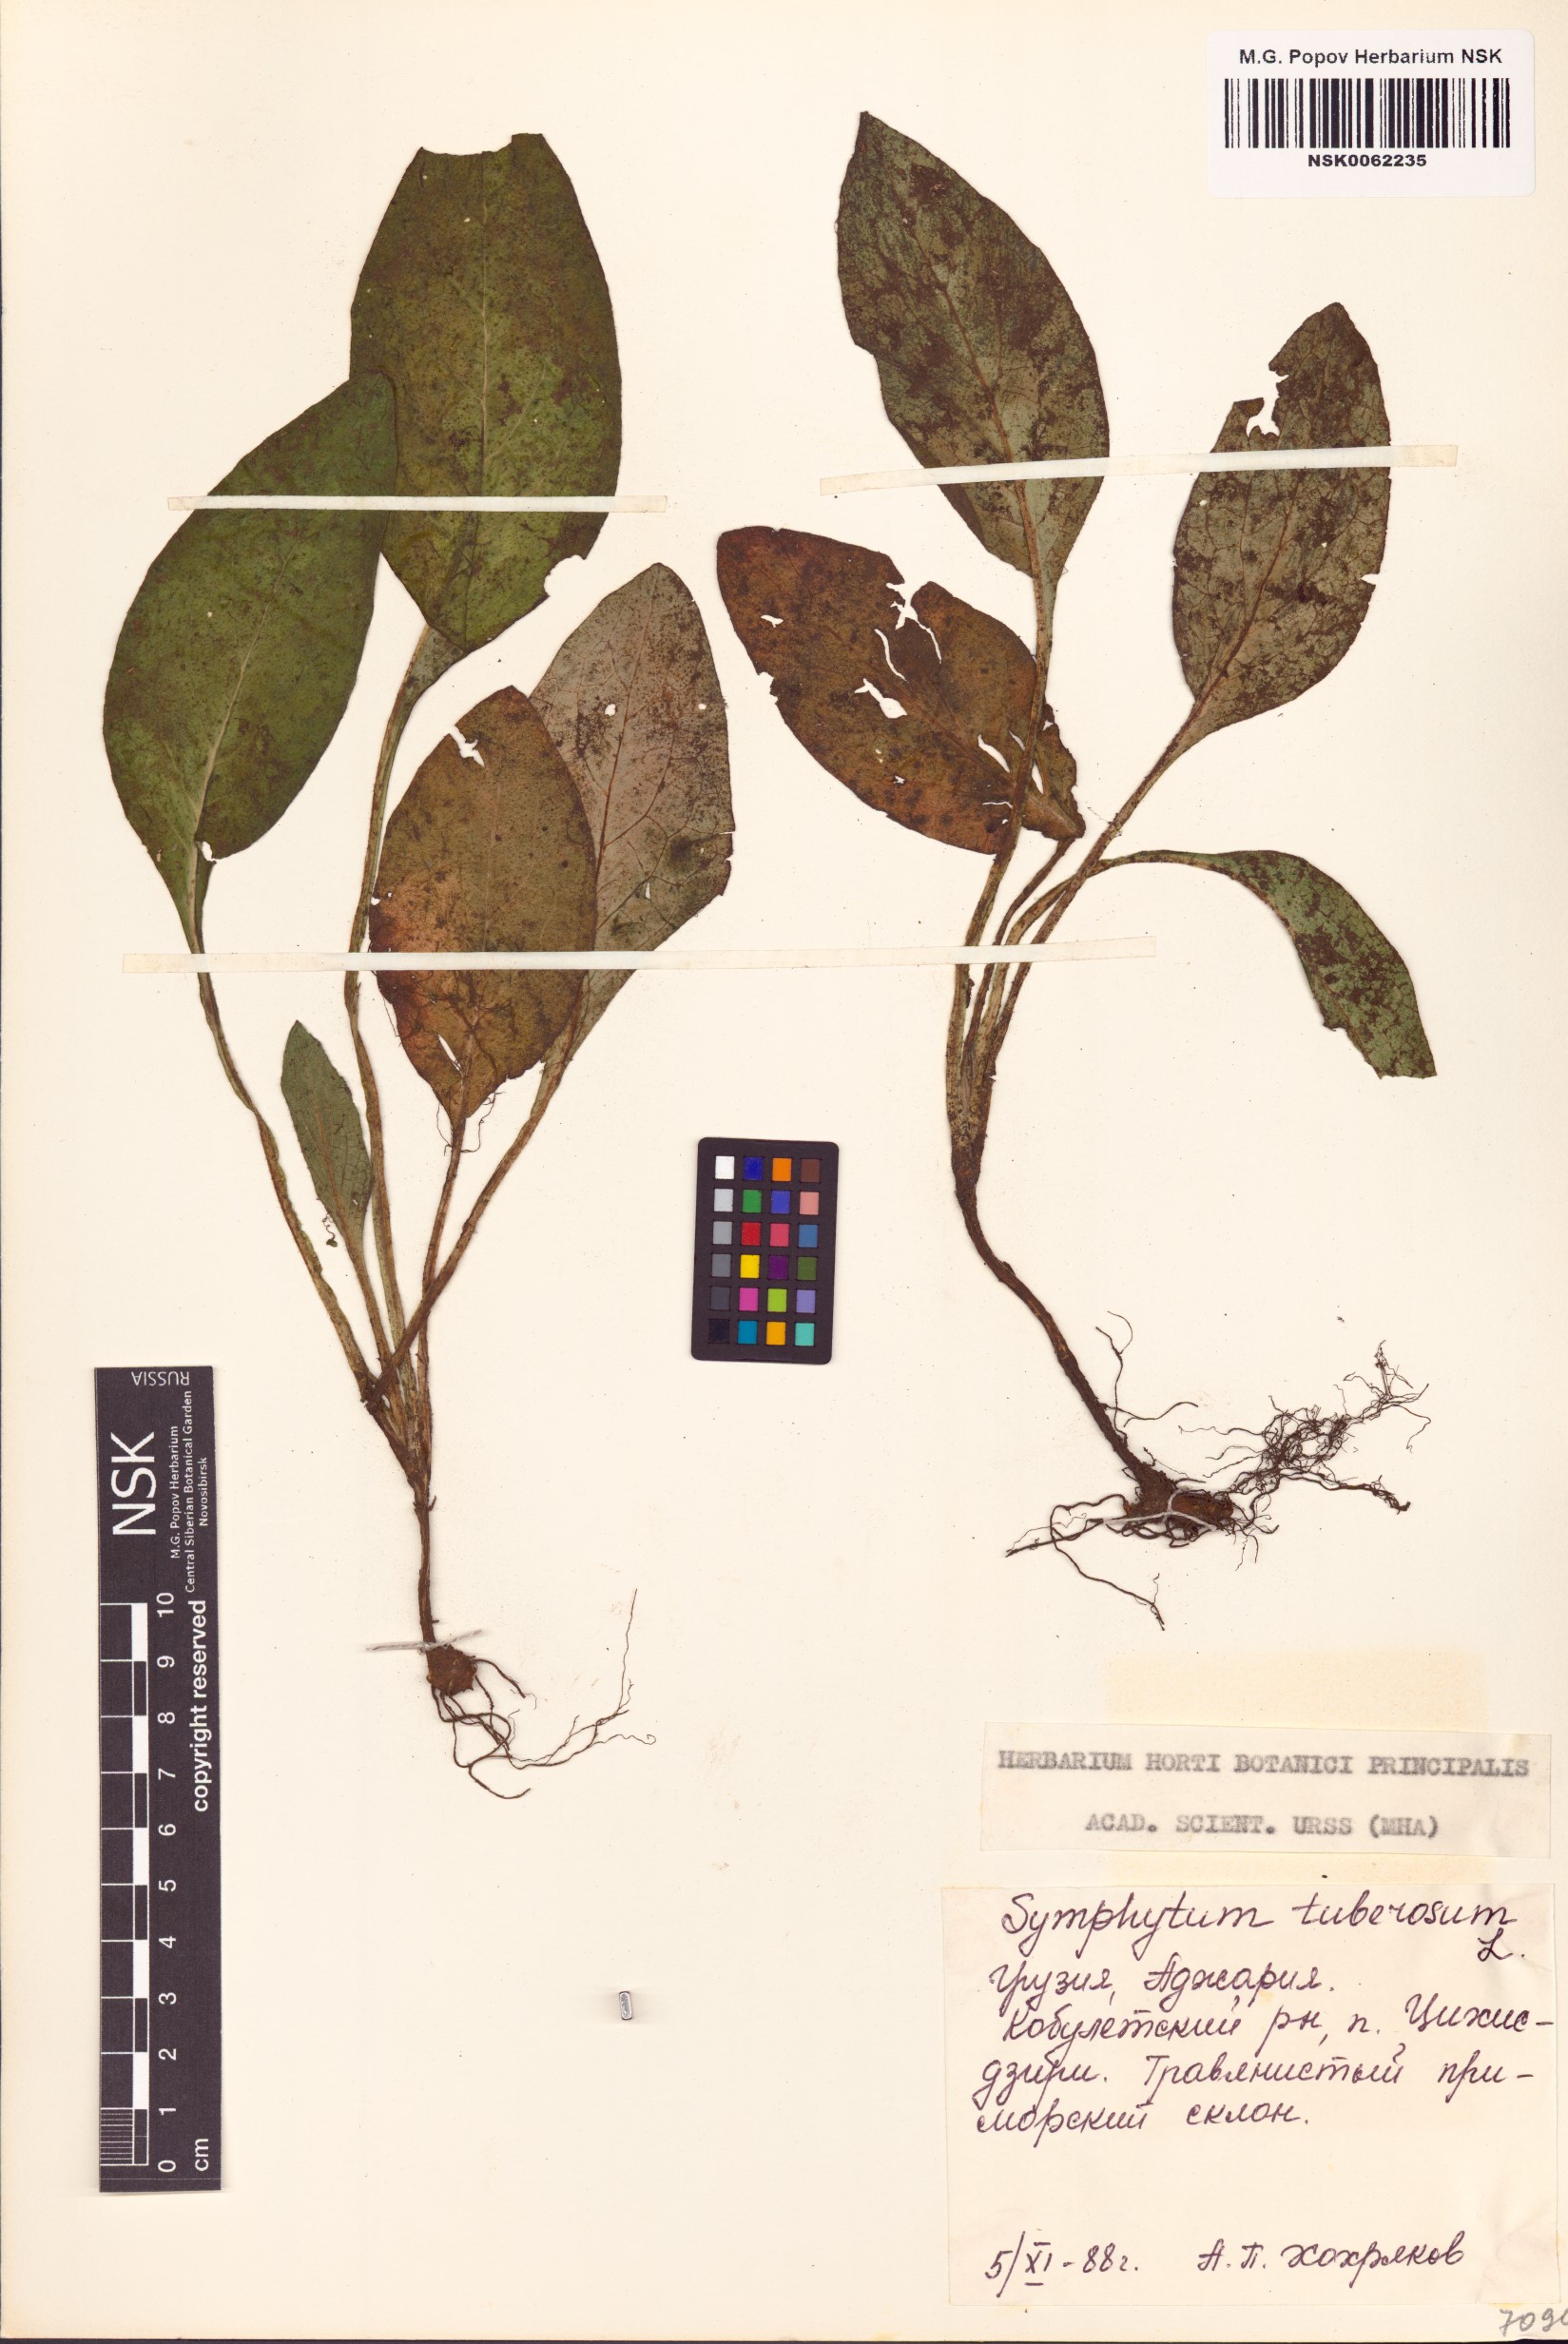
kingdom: Plantae
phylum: Tracheophyta
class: Magnoliopsida
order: Boraginales
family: Boraginaceae
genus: Symphytum
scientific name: Symphytum tuberosum
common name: Tuberous comfrey
